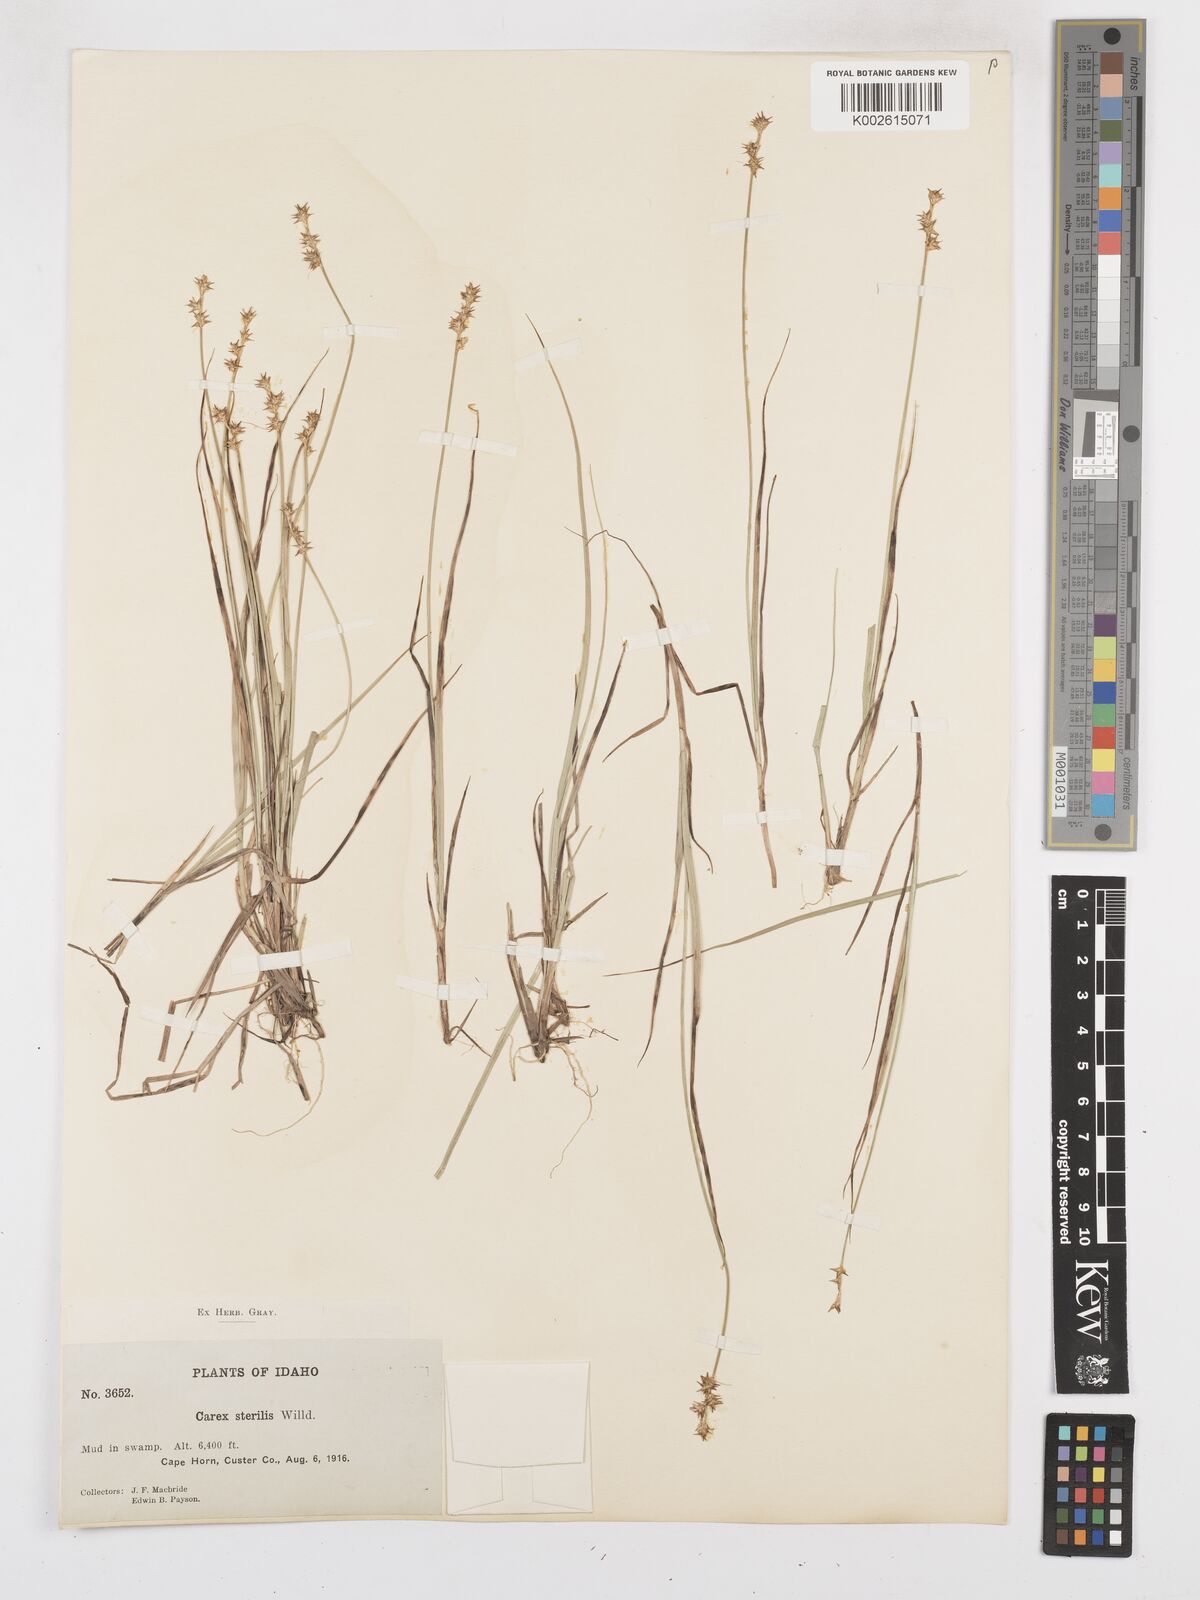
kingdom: Plantae
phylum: Tracheophyta
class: Liliopsida
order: Poales
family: Cyperaceae
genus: Carex
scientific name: Carex sterilis
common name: Dioecious sedge
